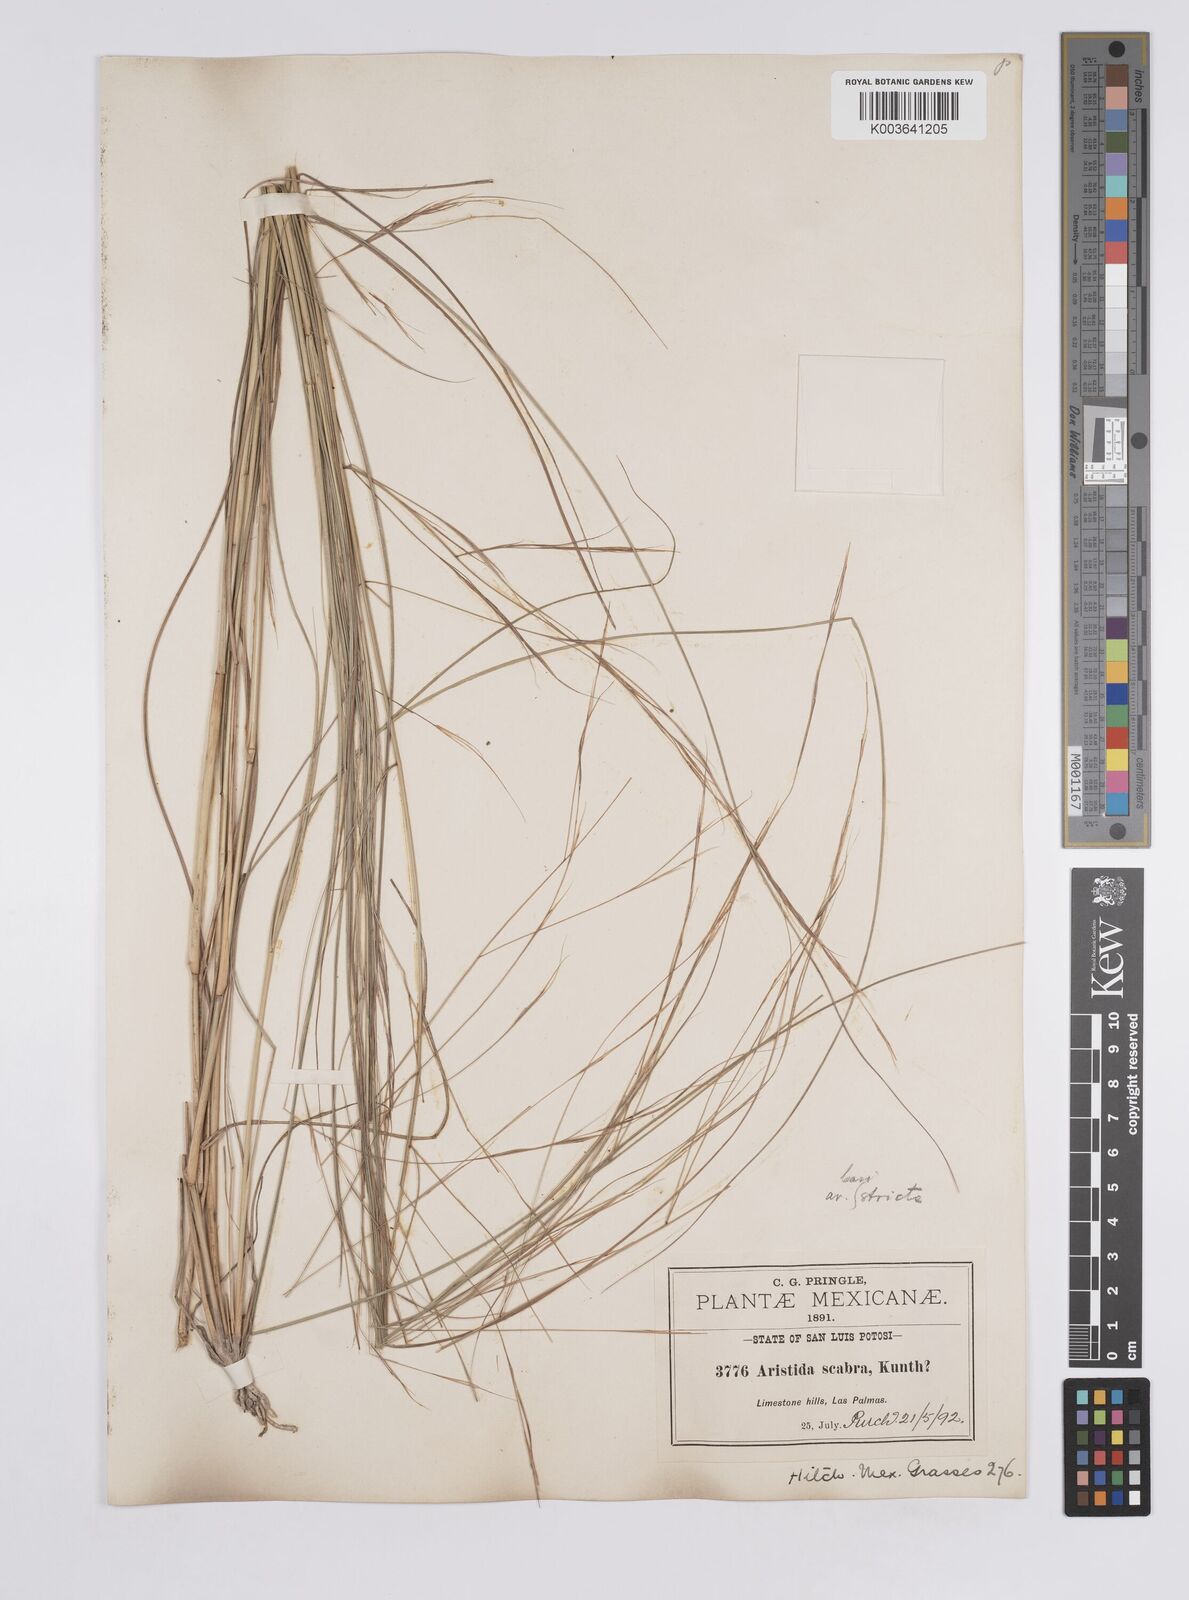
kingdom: Plantae
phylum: Tracheophyta
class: Liliopsida
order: Poales
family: Poaceae
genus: Aristida
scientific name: Aristida ternipes
